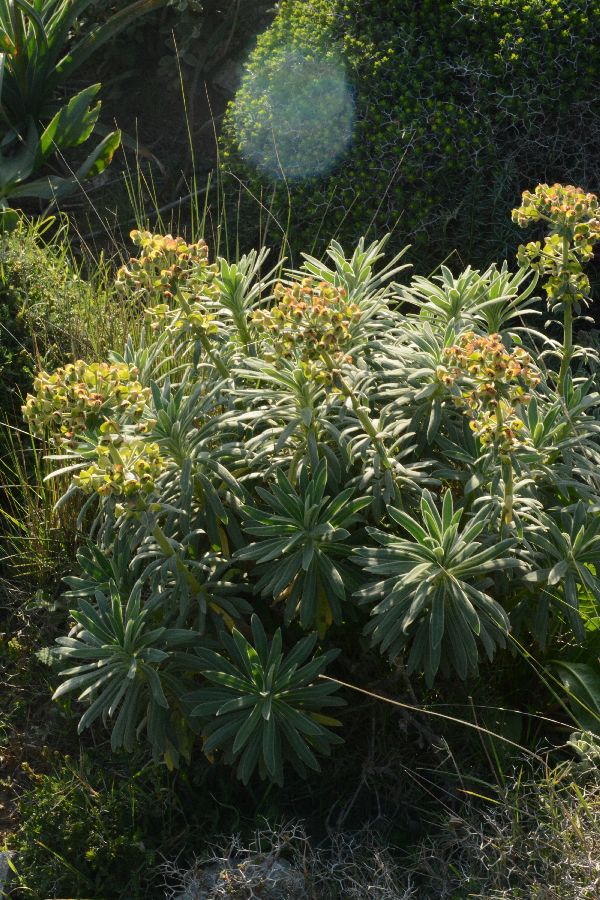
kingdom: Plantae
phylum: Tracheophyta
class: Magnoliopsida
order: Malpighiales
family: Euphorbiaceae
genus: Euphorbia
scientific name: Euphorbia characias
